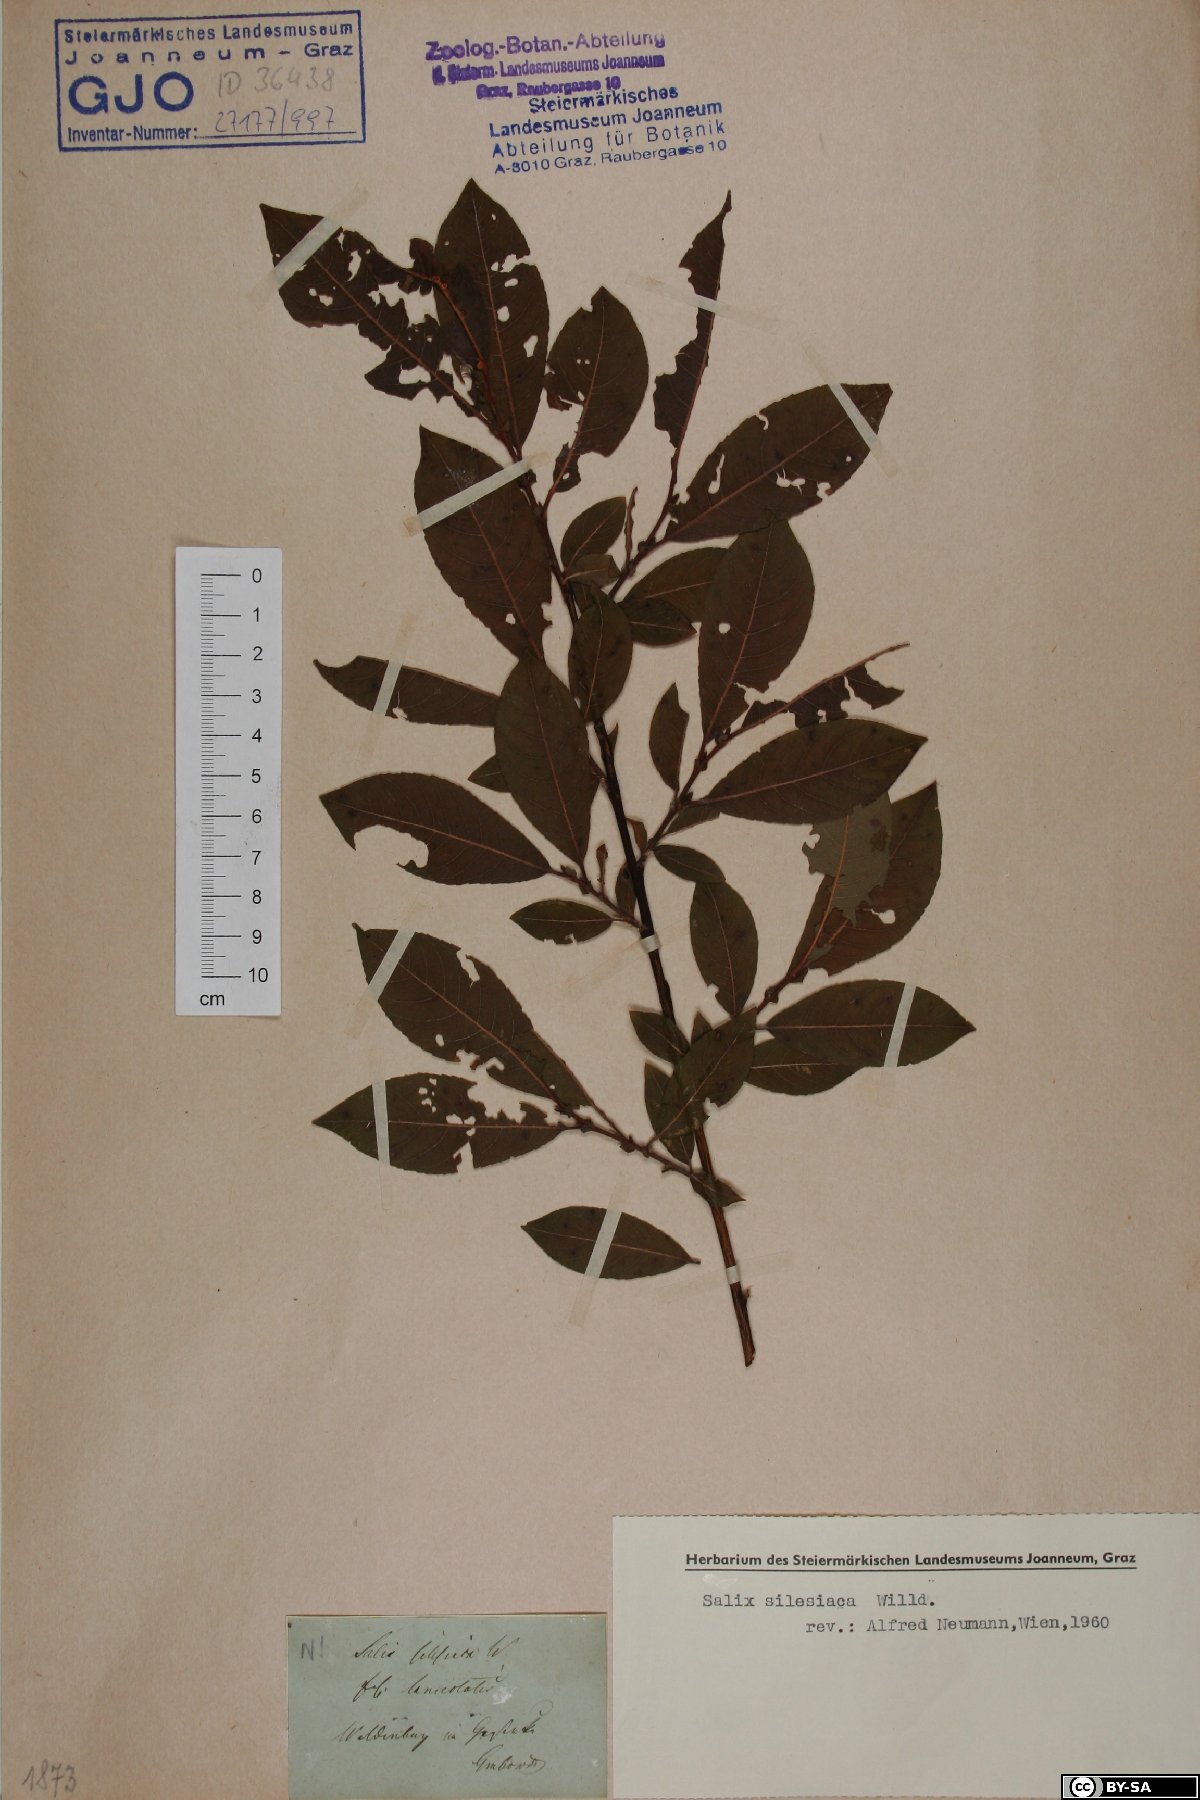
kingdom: Plantae
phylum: Tracheophyta
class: Magnoliopsida
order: Malpighiales
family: Salicaceae
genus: Salix
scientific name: Salix silesiaca
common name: Silesian willow
